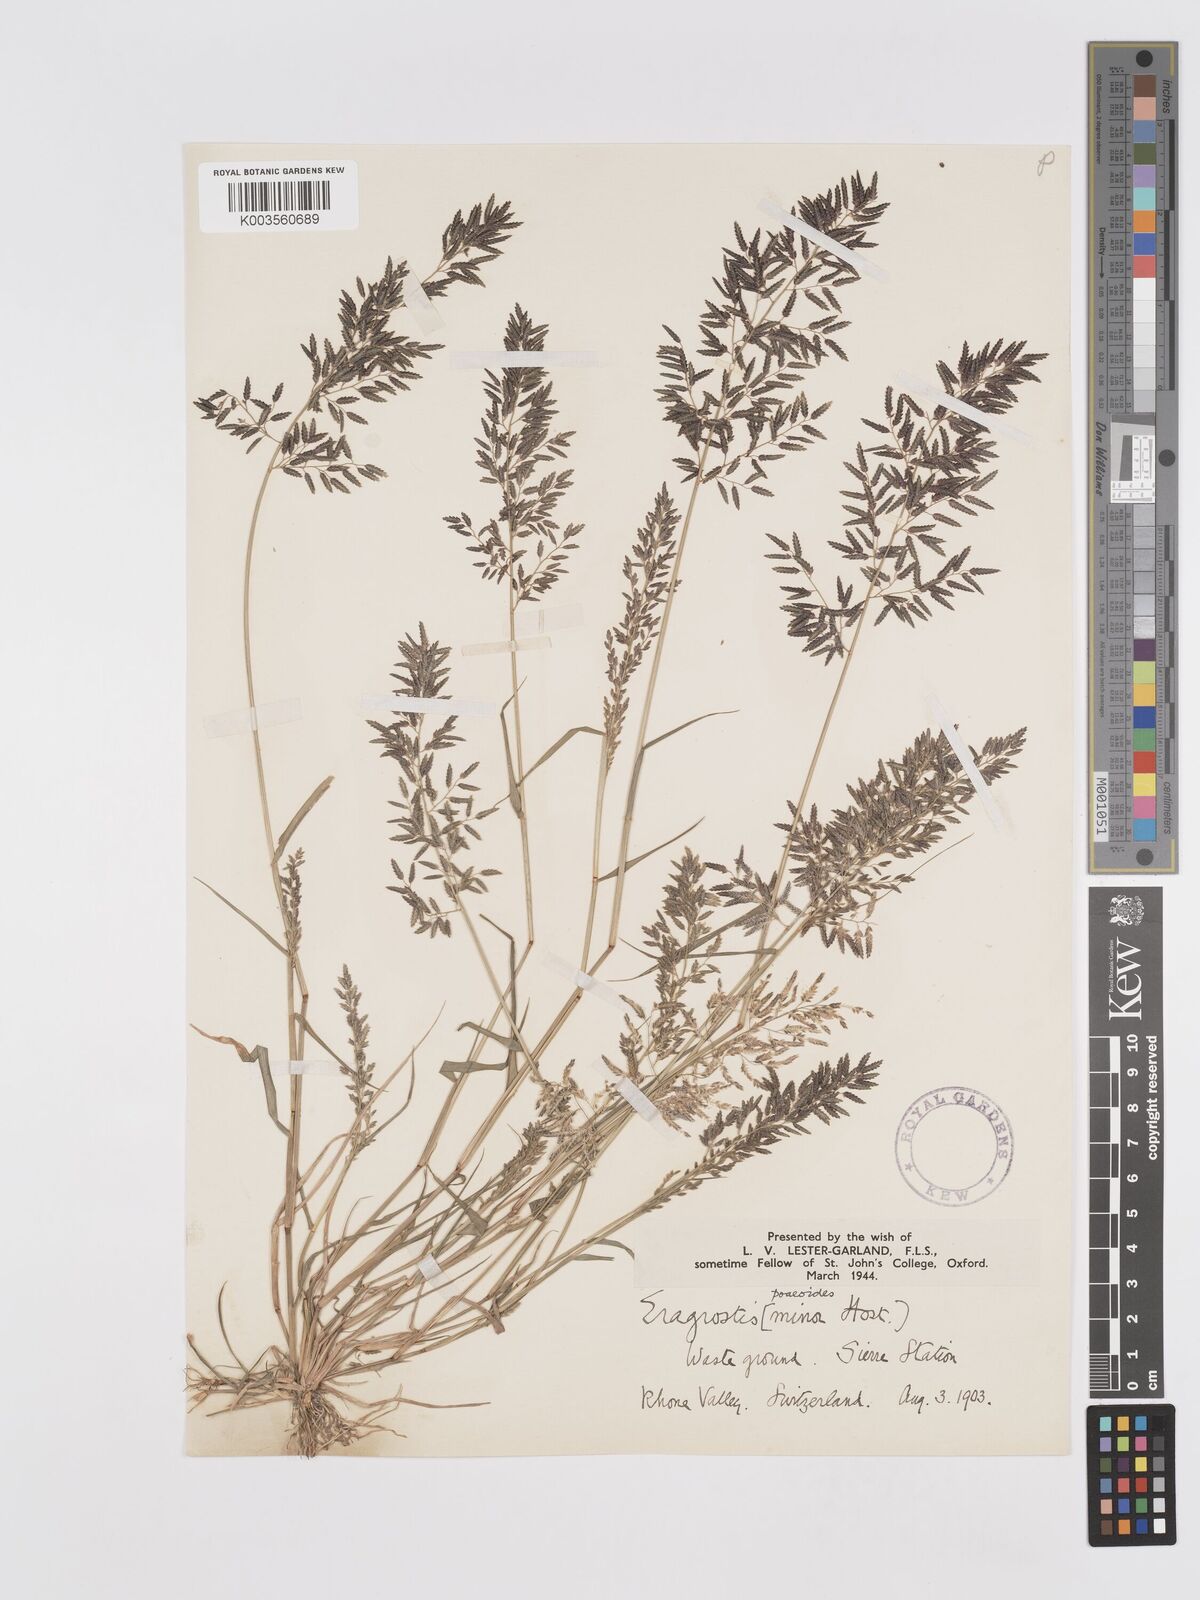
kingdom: Plantae
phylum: Tracheophyta
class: Liliopsida
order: Poales
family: Poaceae
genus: Eragrostis
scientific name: Eragrostis minor
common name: Small love-grass
